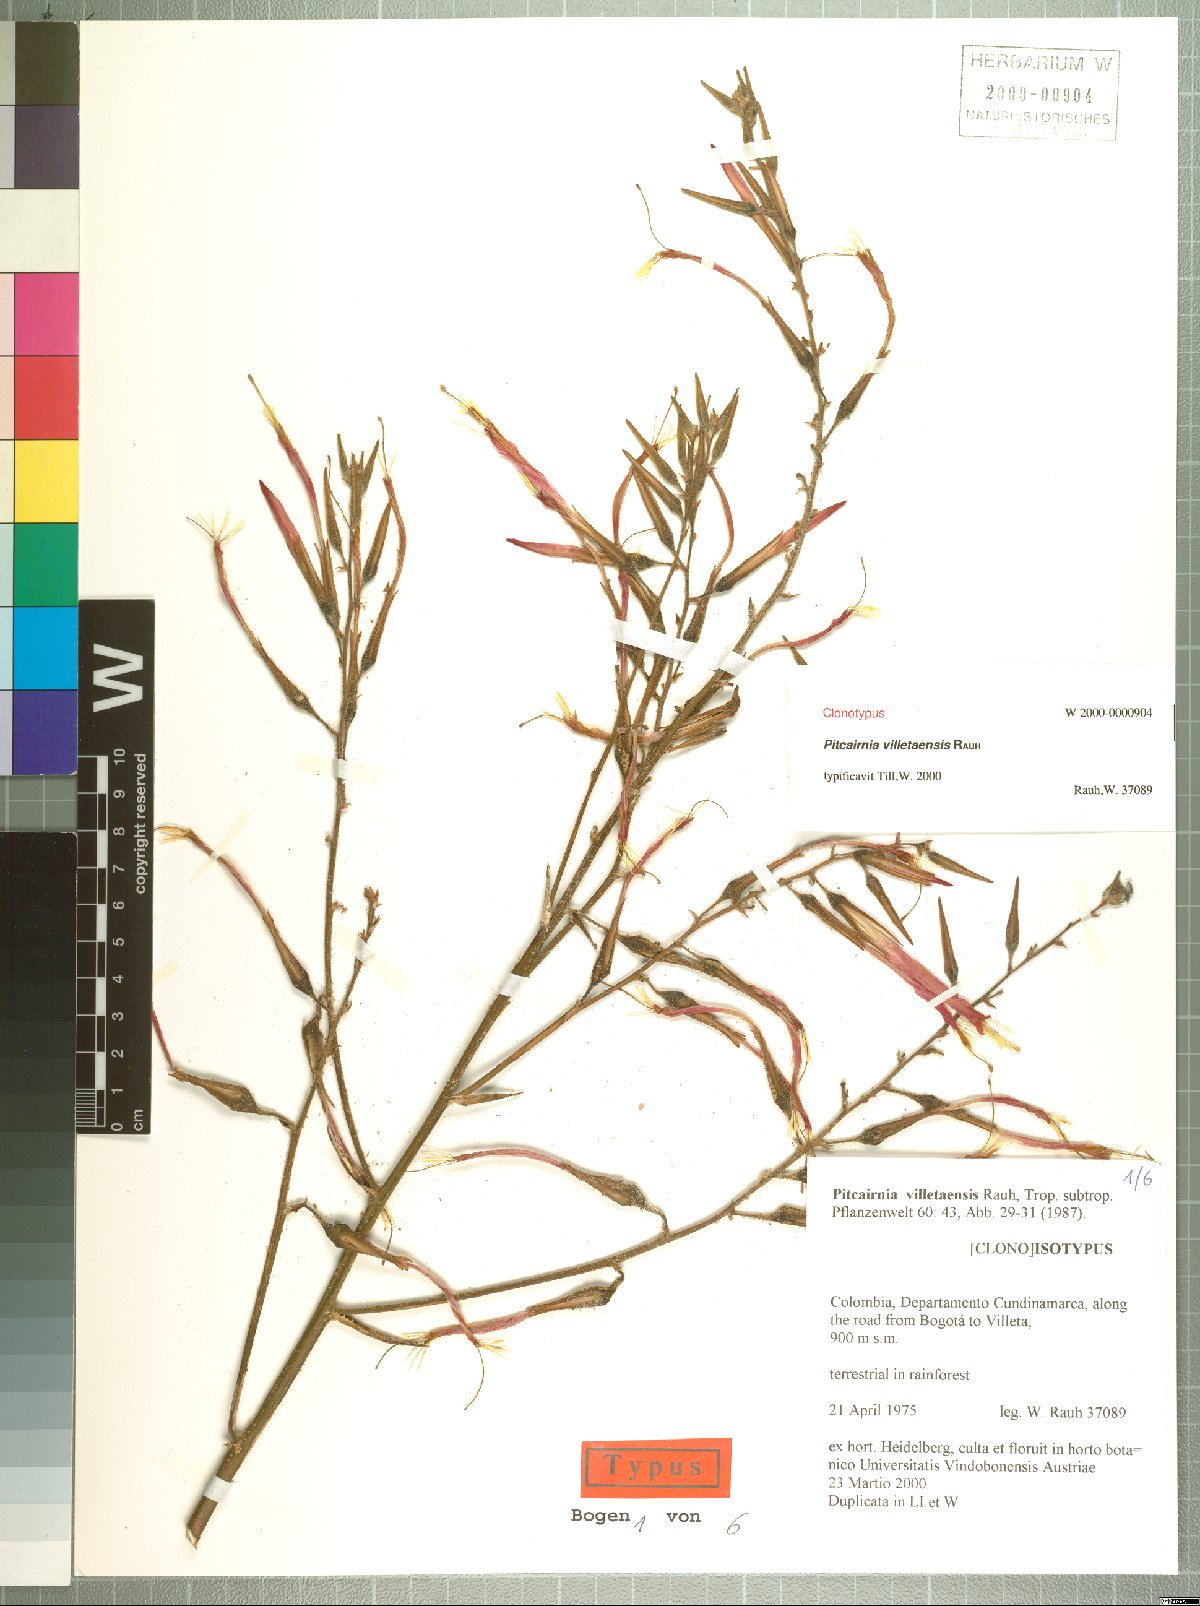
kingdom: Plantae
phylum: Tracheophyta
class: Liliopsida
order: Poales
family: Bromeliaceae
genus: Pitcairnia
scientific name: Pitcairnia villetaensis
